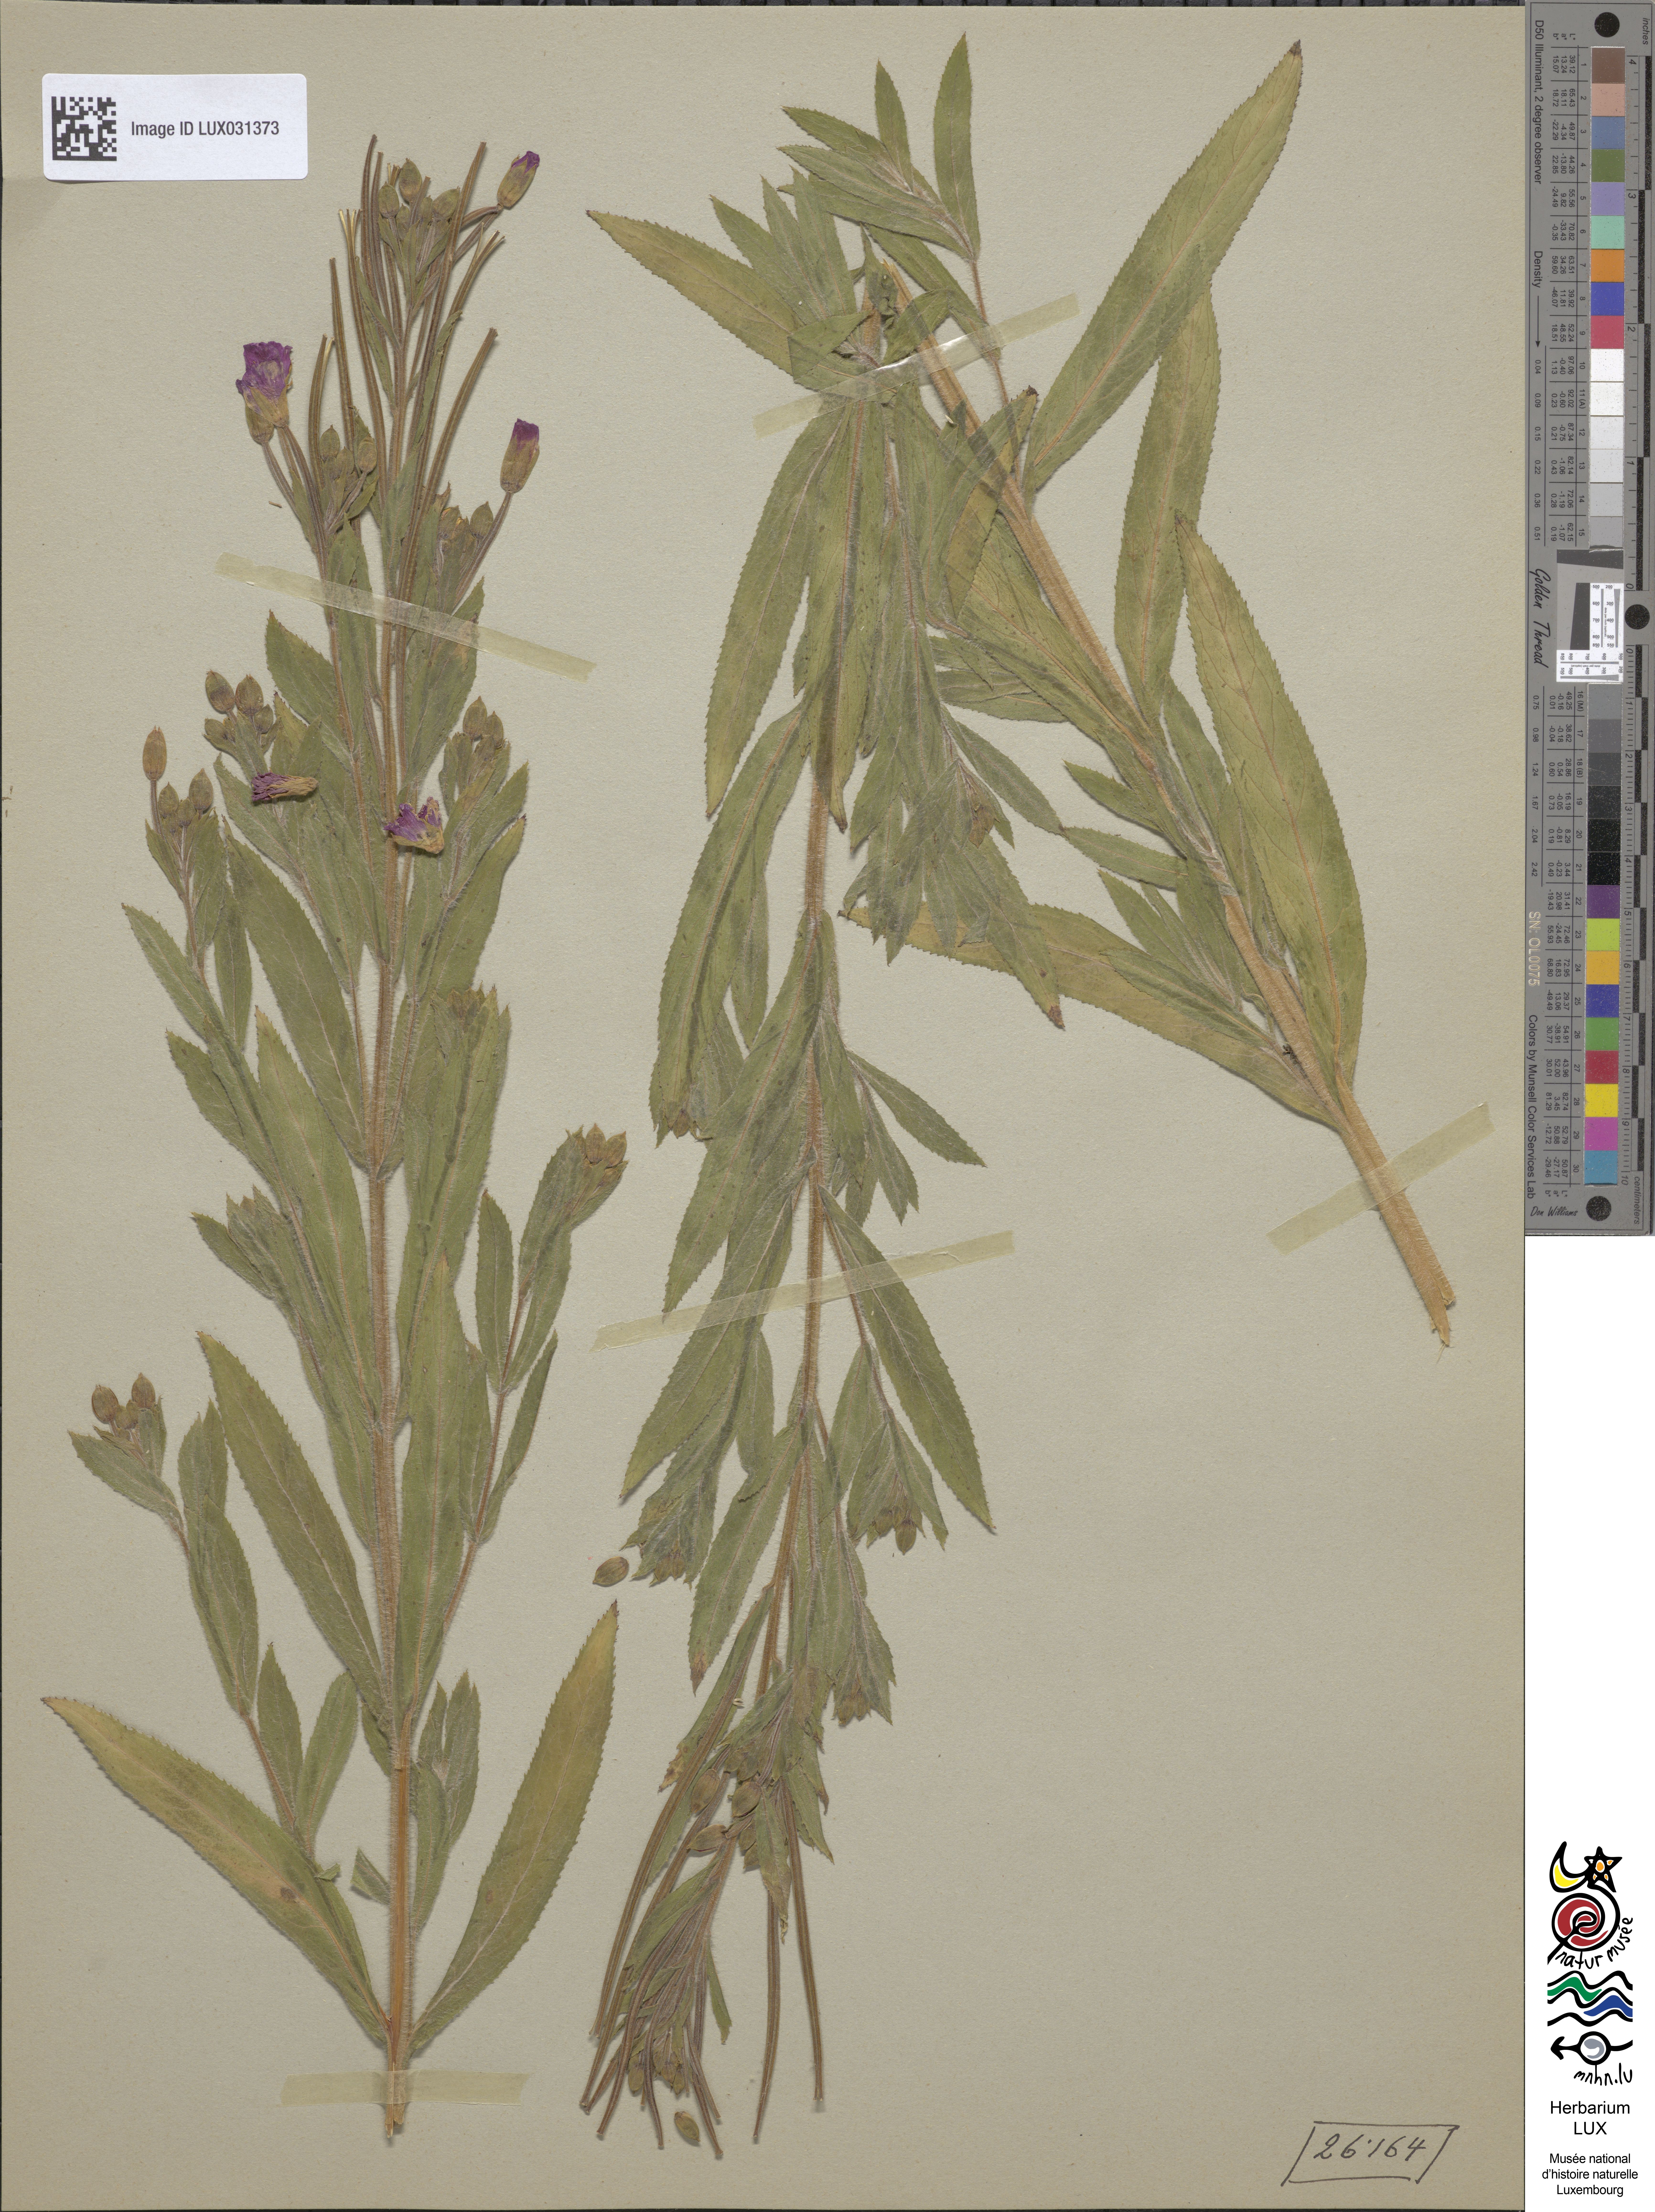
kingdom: Plantae
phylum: Tracheophyta
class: Magnoliopsida
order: Myrtales
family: Onagraceae
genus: Epilobium
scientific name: Epilobium hirsutum
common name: Great willowherb
